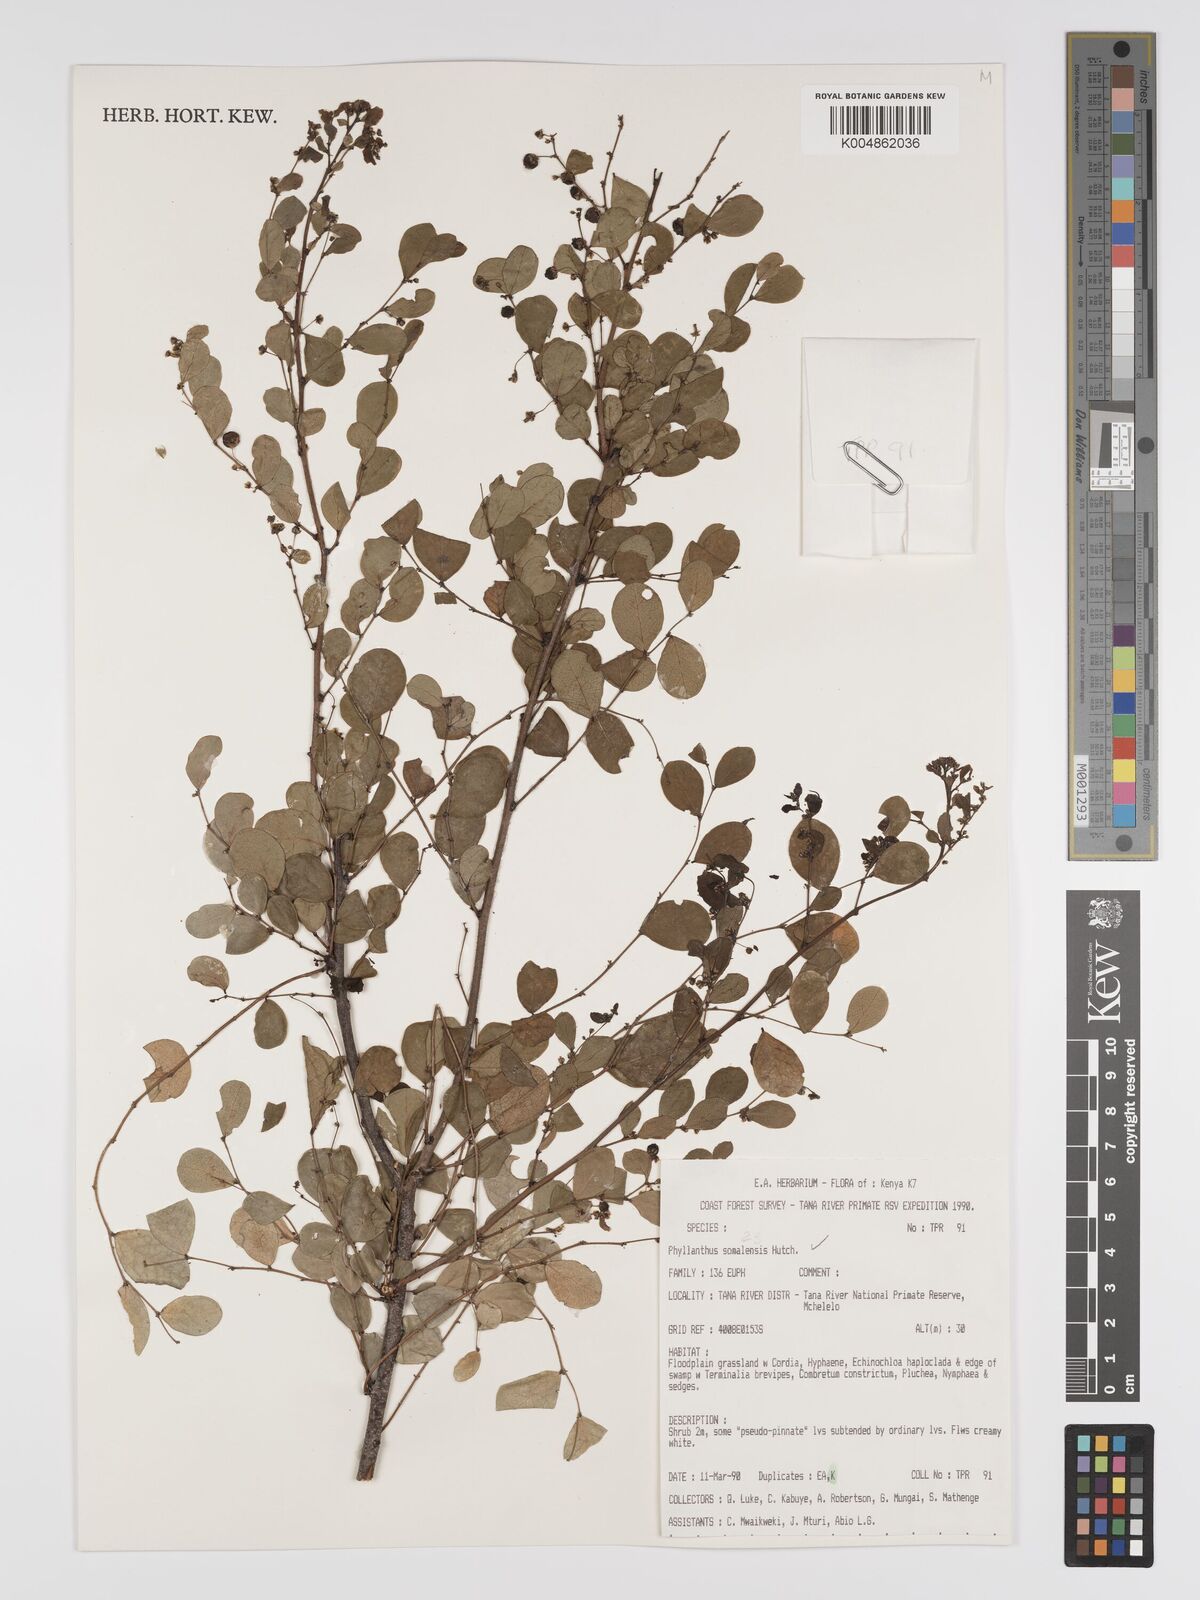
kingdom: Plantae
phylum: Tracheophyta
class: Magnoliopsida
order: Malpighiales
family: Phyllanthaceae
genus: Phyllanthus
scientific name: Phyllanthus somalensis
